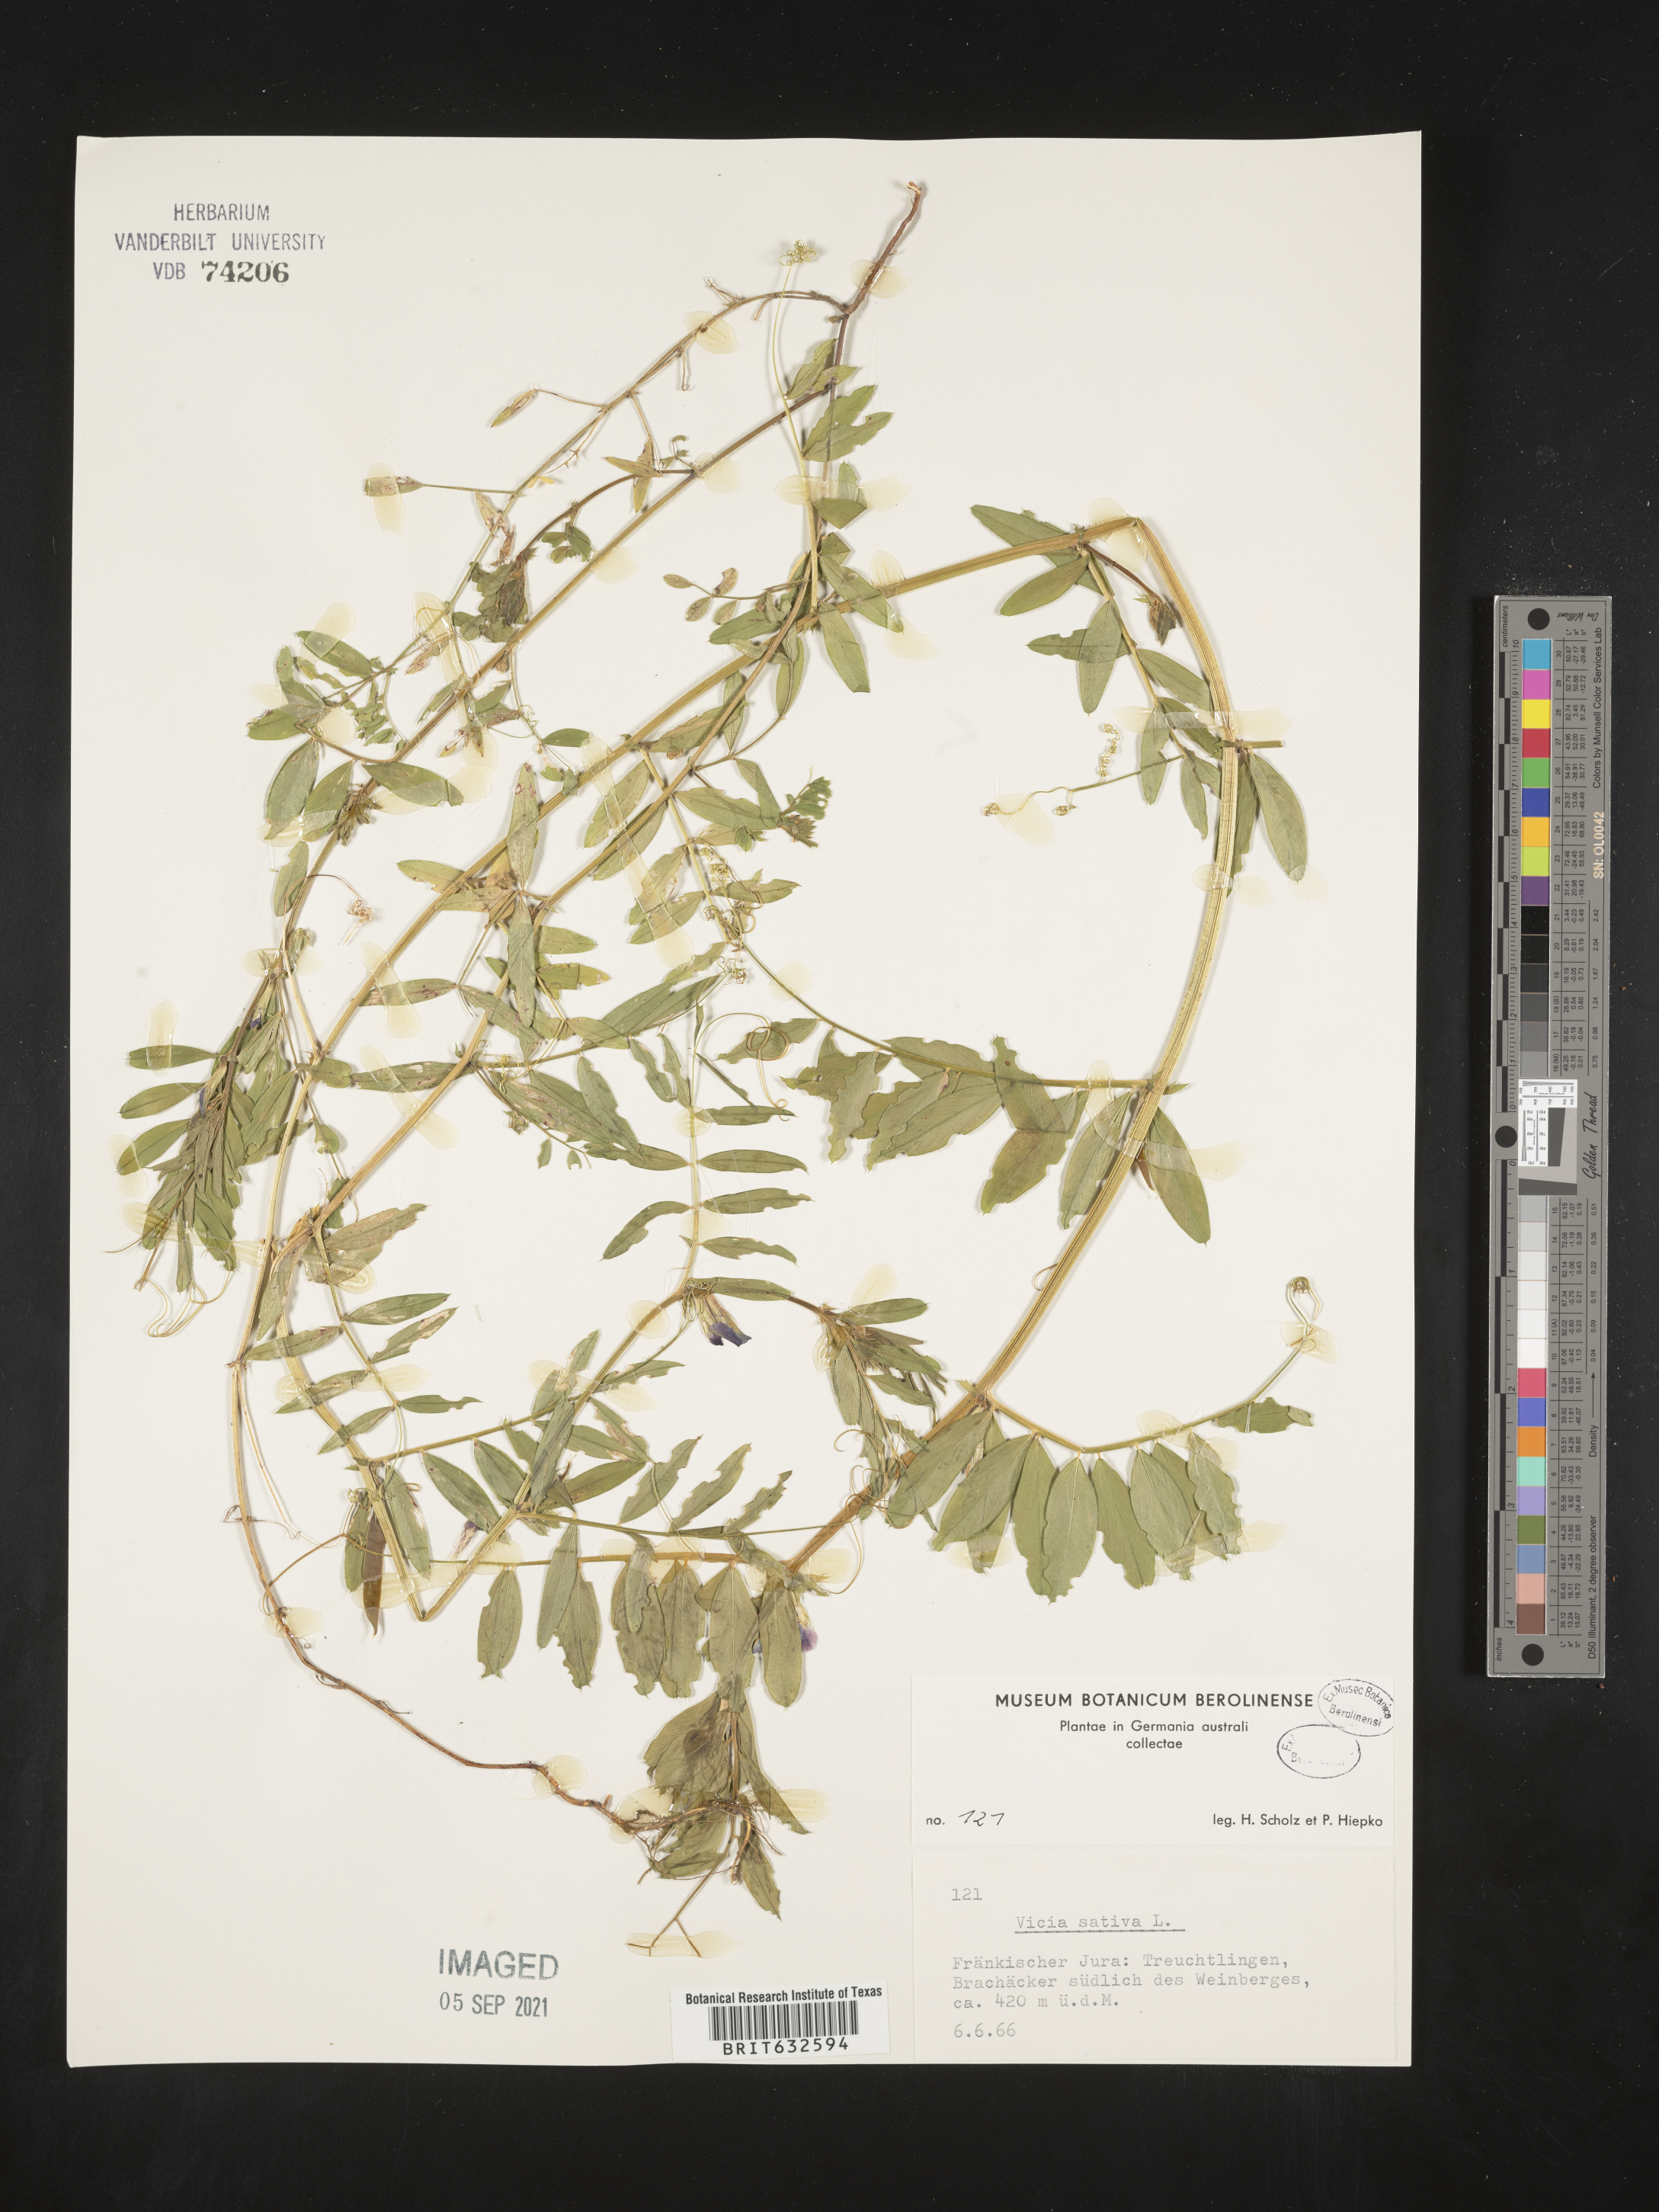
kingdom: Plantae
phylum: Tracheophyta
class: Magnoliopsida
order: Fabales
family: Fabaceae
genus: Vicia
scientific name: Vicia
